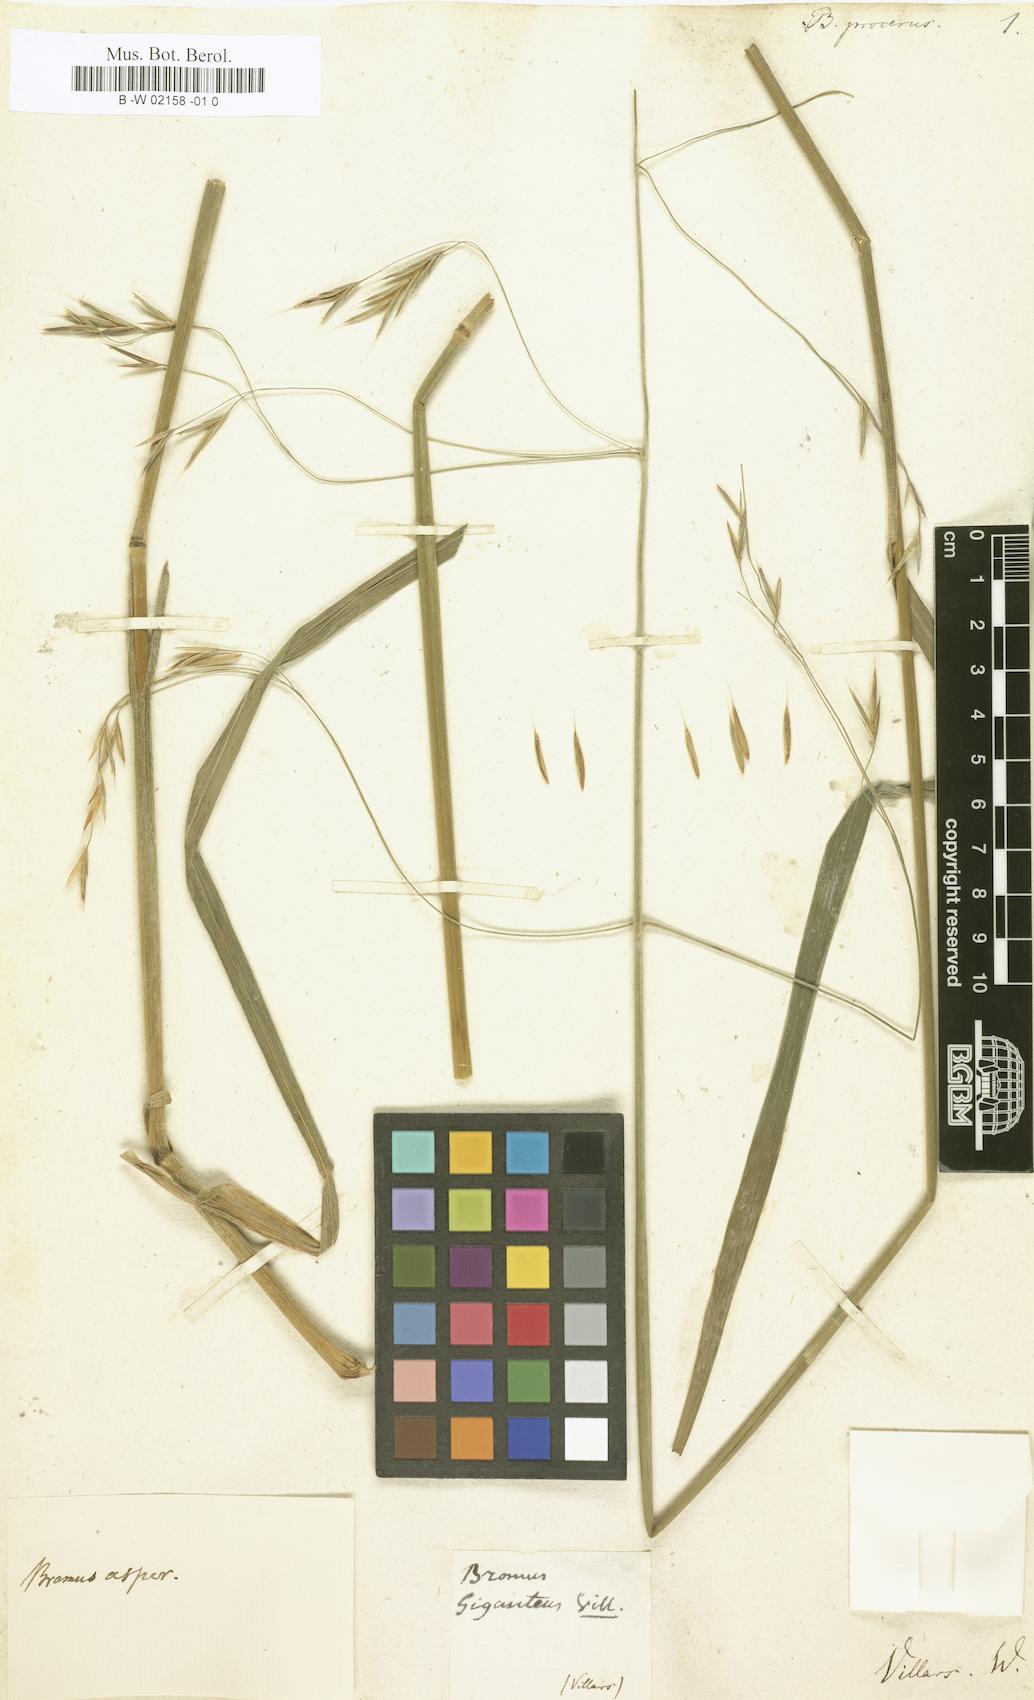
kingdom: Plantae
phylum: Tracheophyta
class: Liliopsida
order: Poales
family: Poaceae
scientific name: Poaceae
